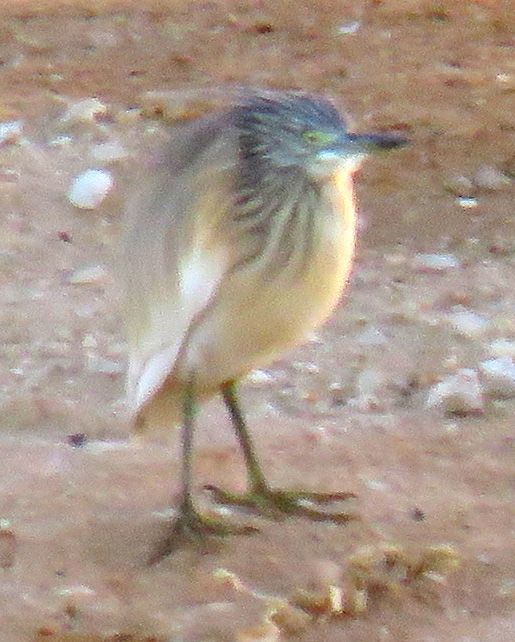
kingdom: Animalia
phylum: Chordata
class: Aves
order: Pelecaniformes
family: Ardeidae
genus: Ardeola
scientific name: Ardeola ralloides
